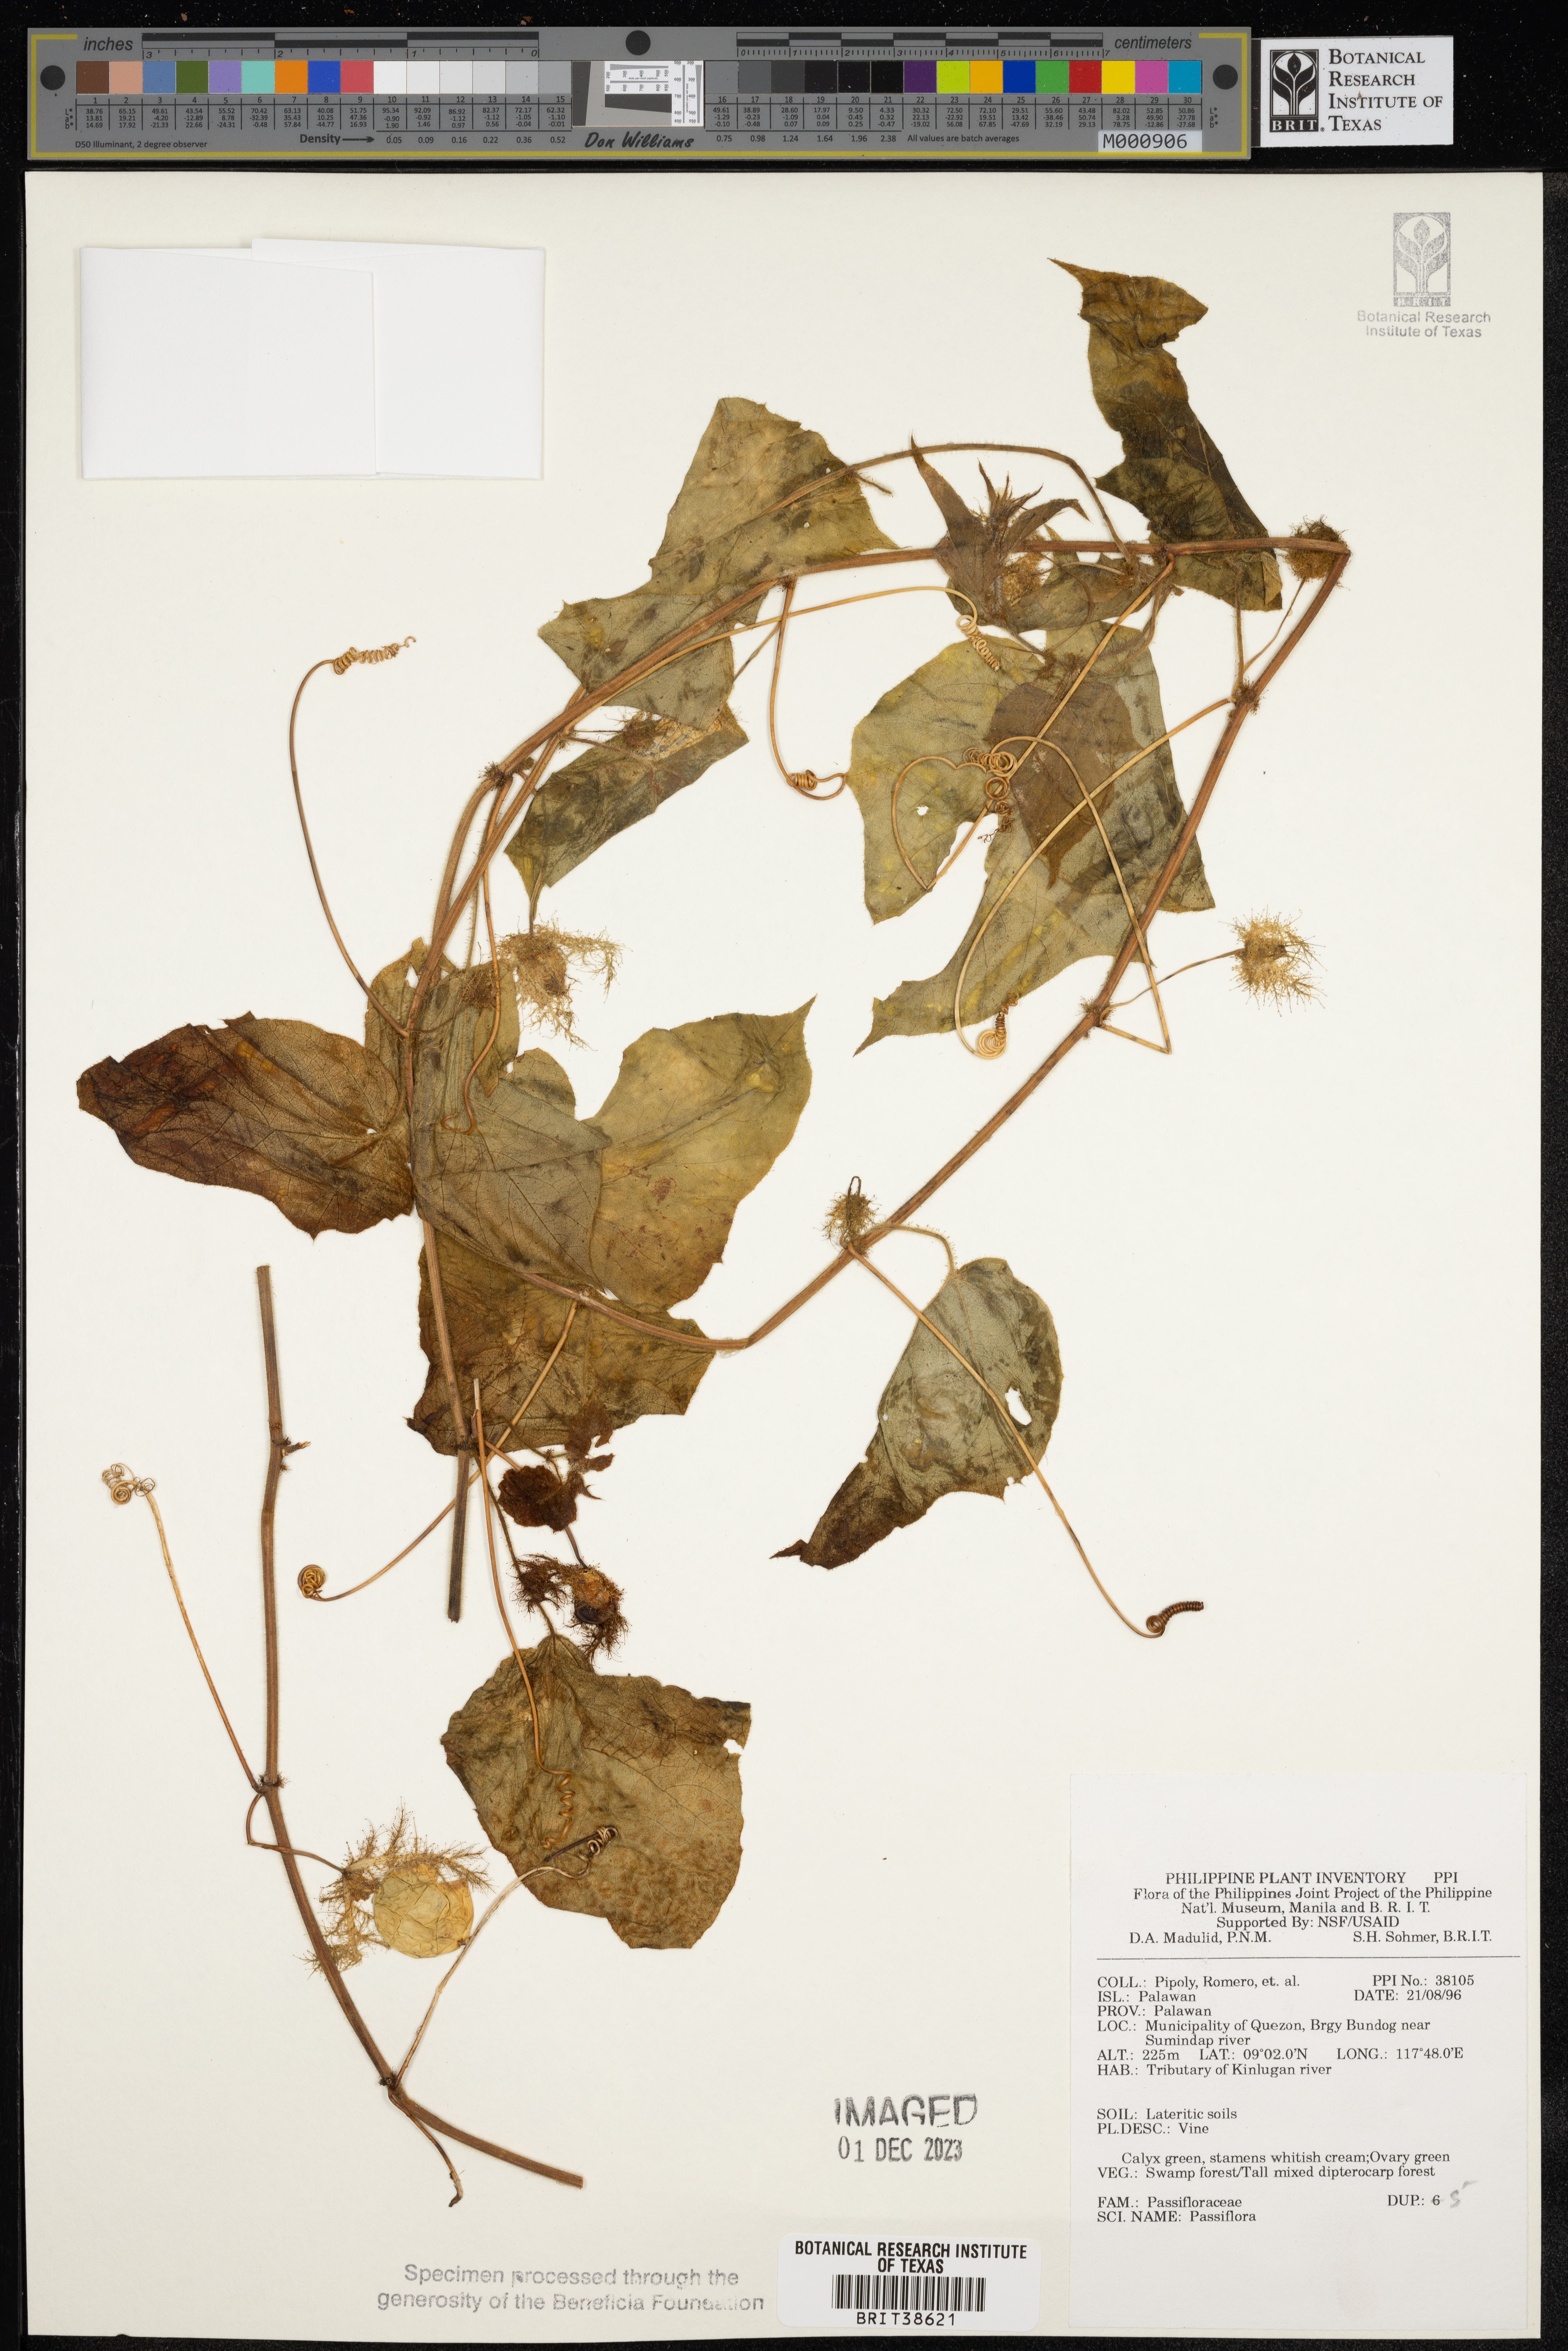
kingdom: Plantae
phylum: Tracheophyta
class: Magnoliopsida
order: Malpighiales
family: Passifloraceae
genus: Passiflora
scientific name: Passiflora
